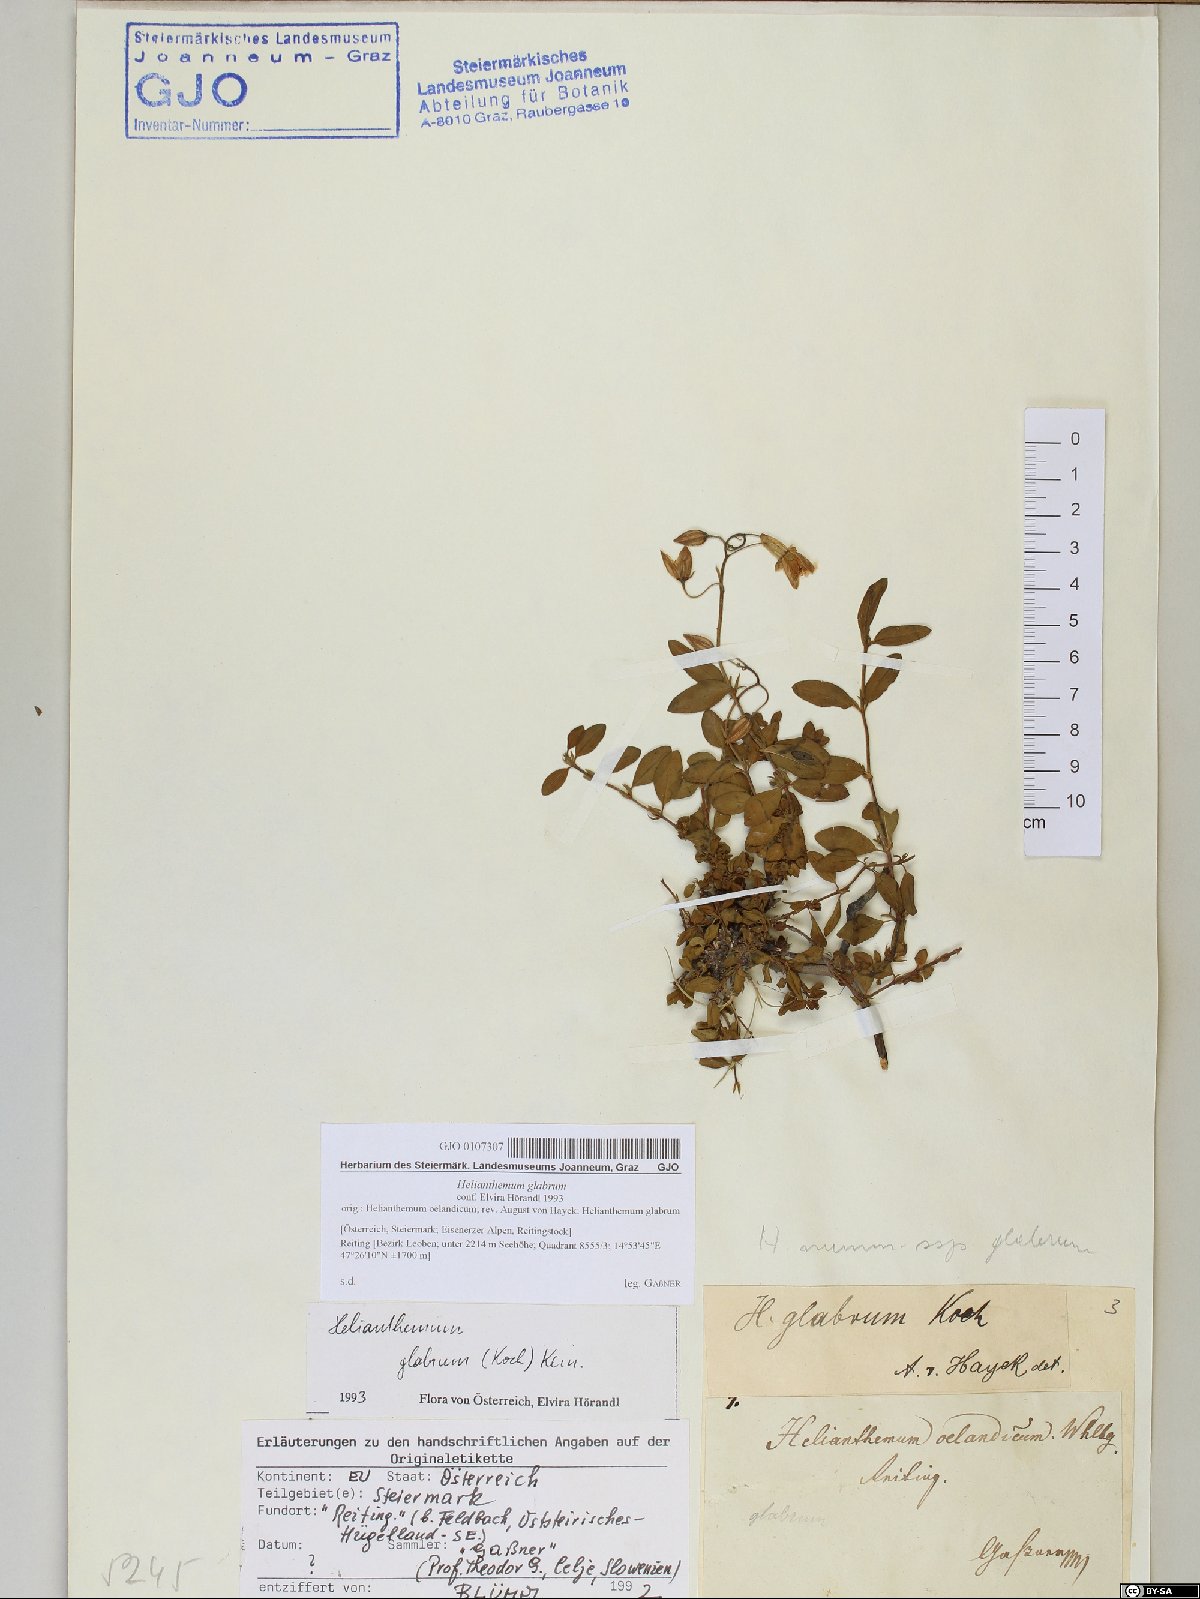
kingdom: Plantae
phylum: Tracheophyta
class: Magnoliopsida
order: Malvales
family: Cistaceae
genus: Helianthemum
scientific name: Helianthemum nummularium
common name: Common rock-rose
